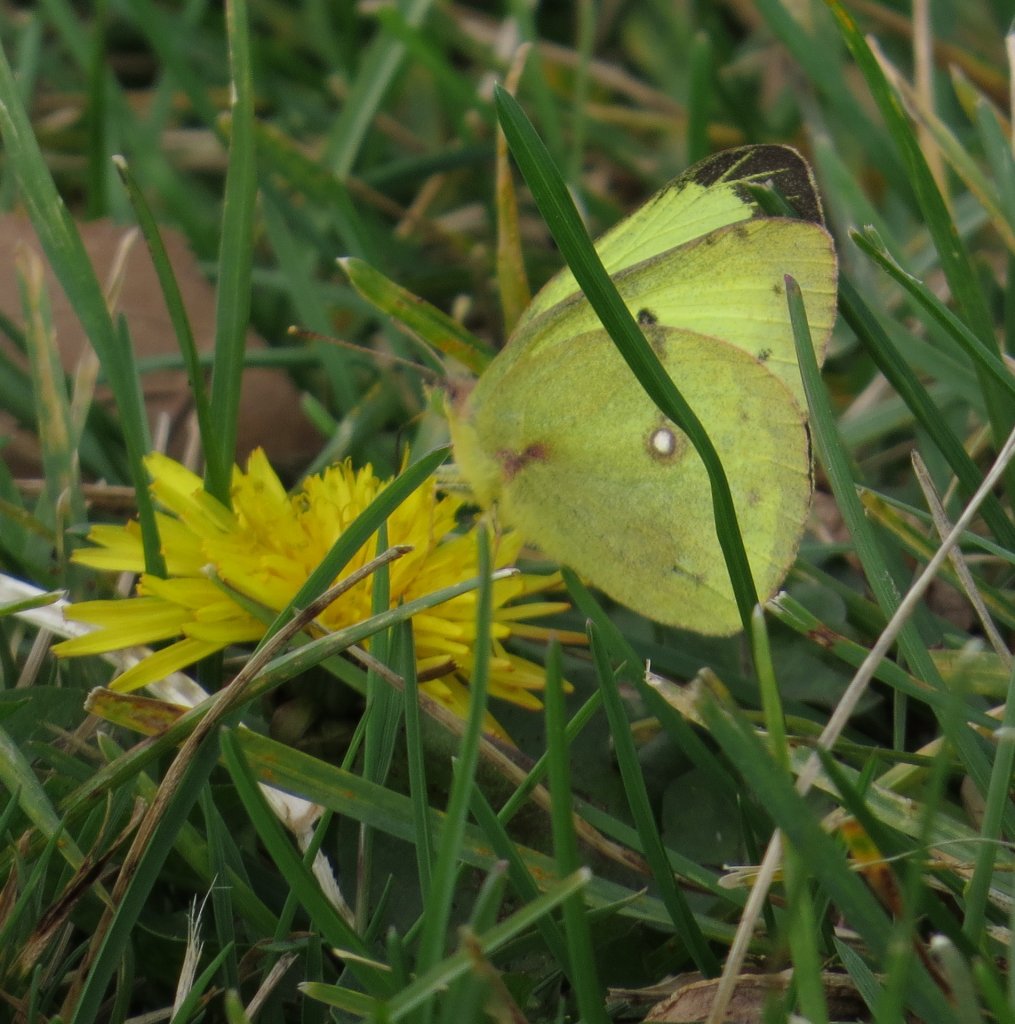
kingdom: Animalia
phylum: Arthropoda
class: Insecta
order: Lepidoptera
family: Pieridae
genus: Colias
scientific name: Colias philodice
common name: Clouded Sulphur
